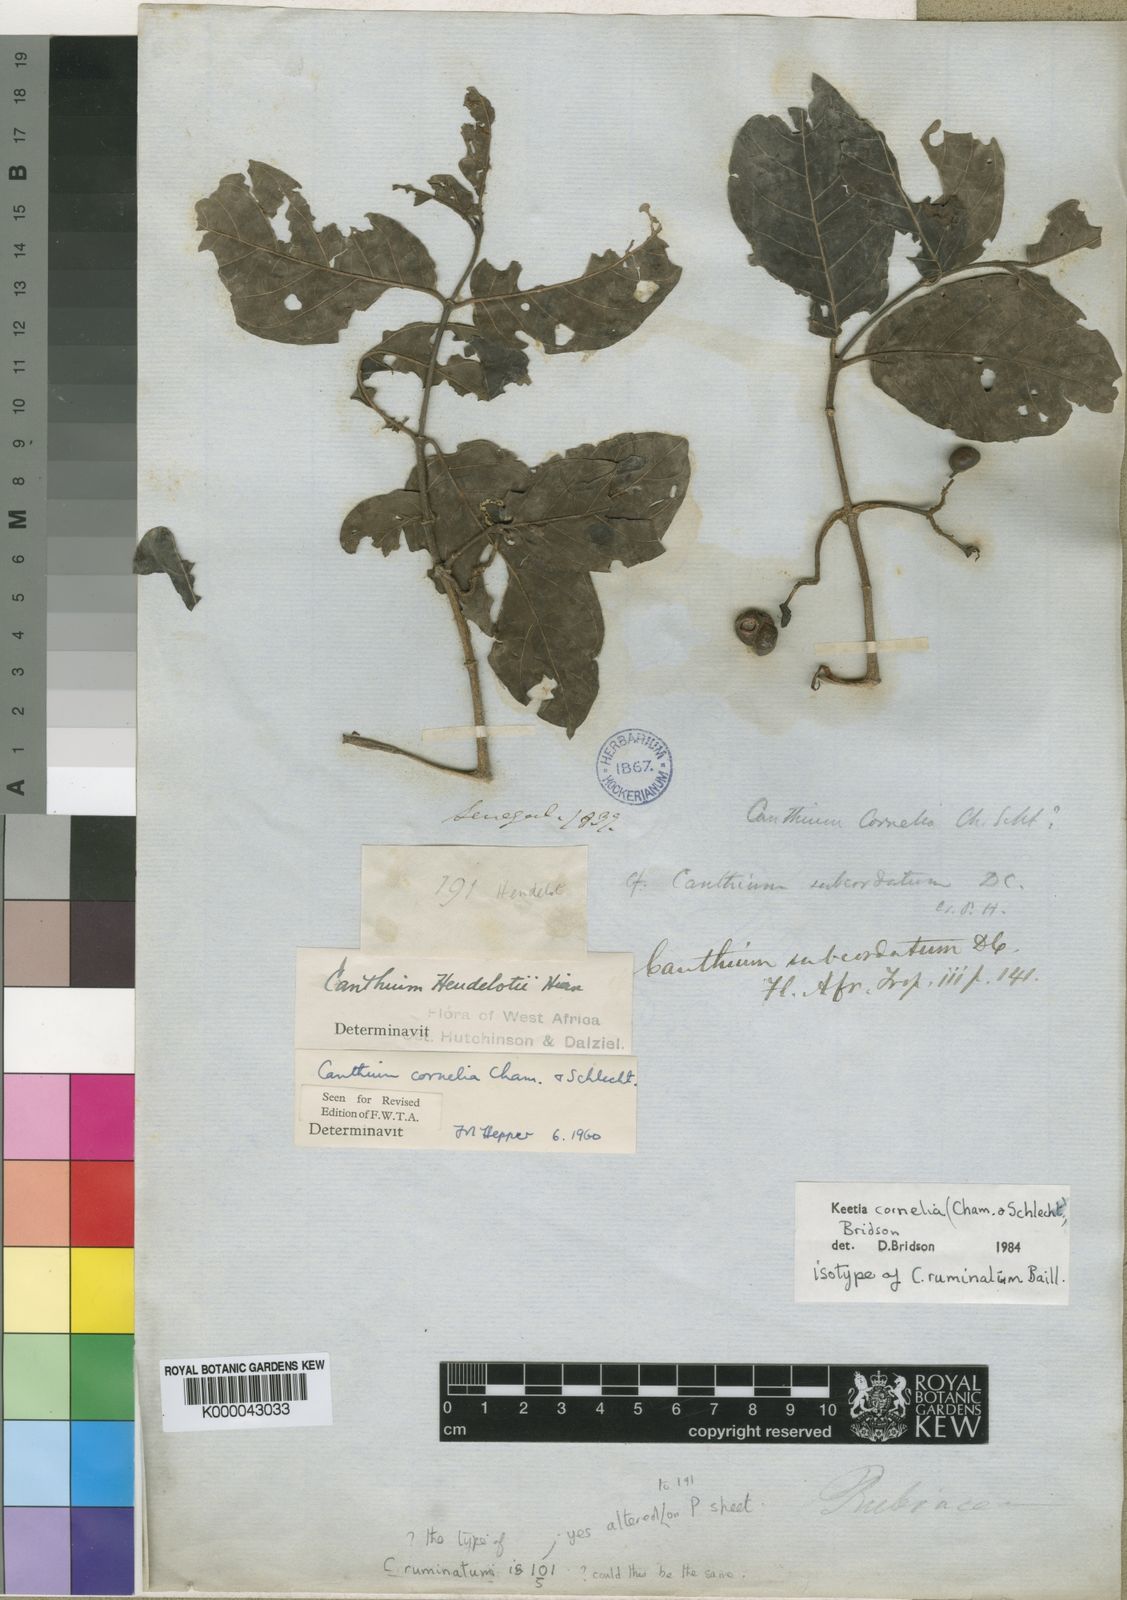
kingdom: Plantae
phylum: Tracheophyta
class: Magnoliopsida
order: Gentianales
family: Rubiaceae
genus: Keetia
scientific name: Keetia cornelia
